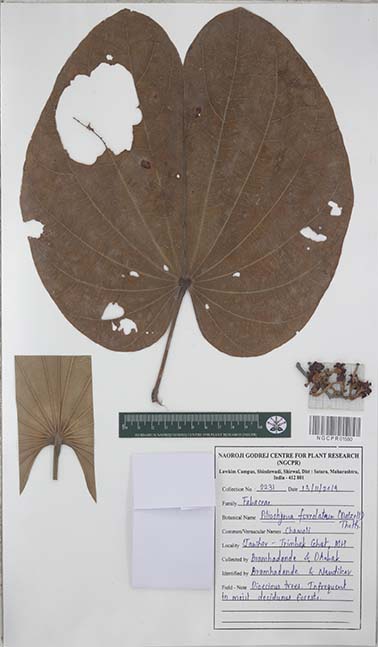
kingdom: Plantae
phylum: Tracheophyta
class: Magnoliopsida
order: Fabales
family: Fabaceae
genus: Piliostigma
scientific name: Piliostigma foveolatum
